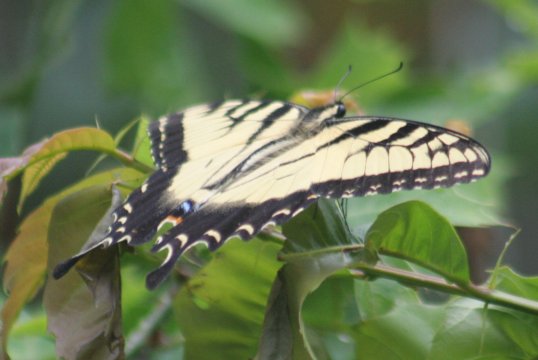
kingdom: Animalia
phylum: Arthropoda
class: Insecta
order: Lepidoptera
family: Papilionidae
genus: Pterourus
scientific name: Pterourus glaucus
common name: Eastern Tiger Swallowtail
